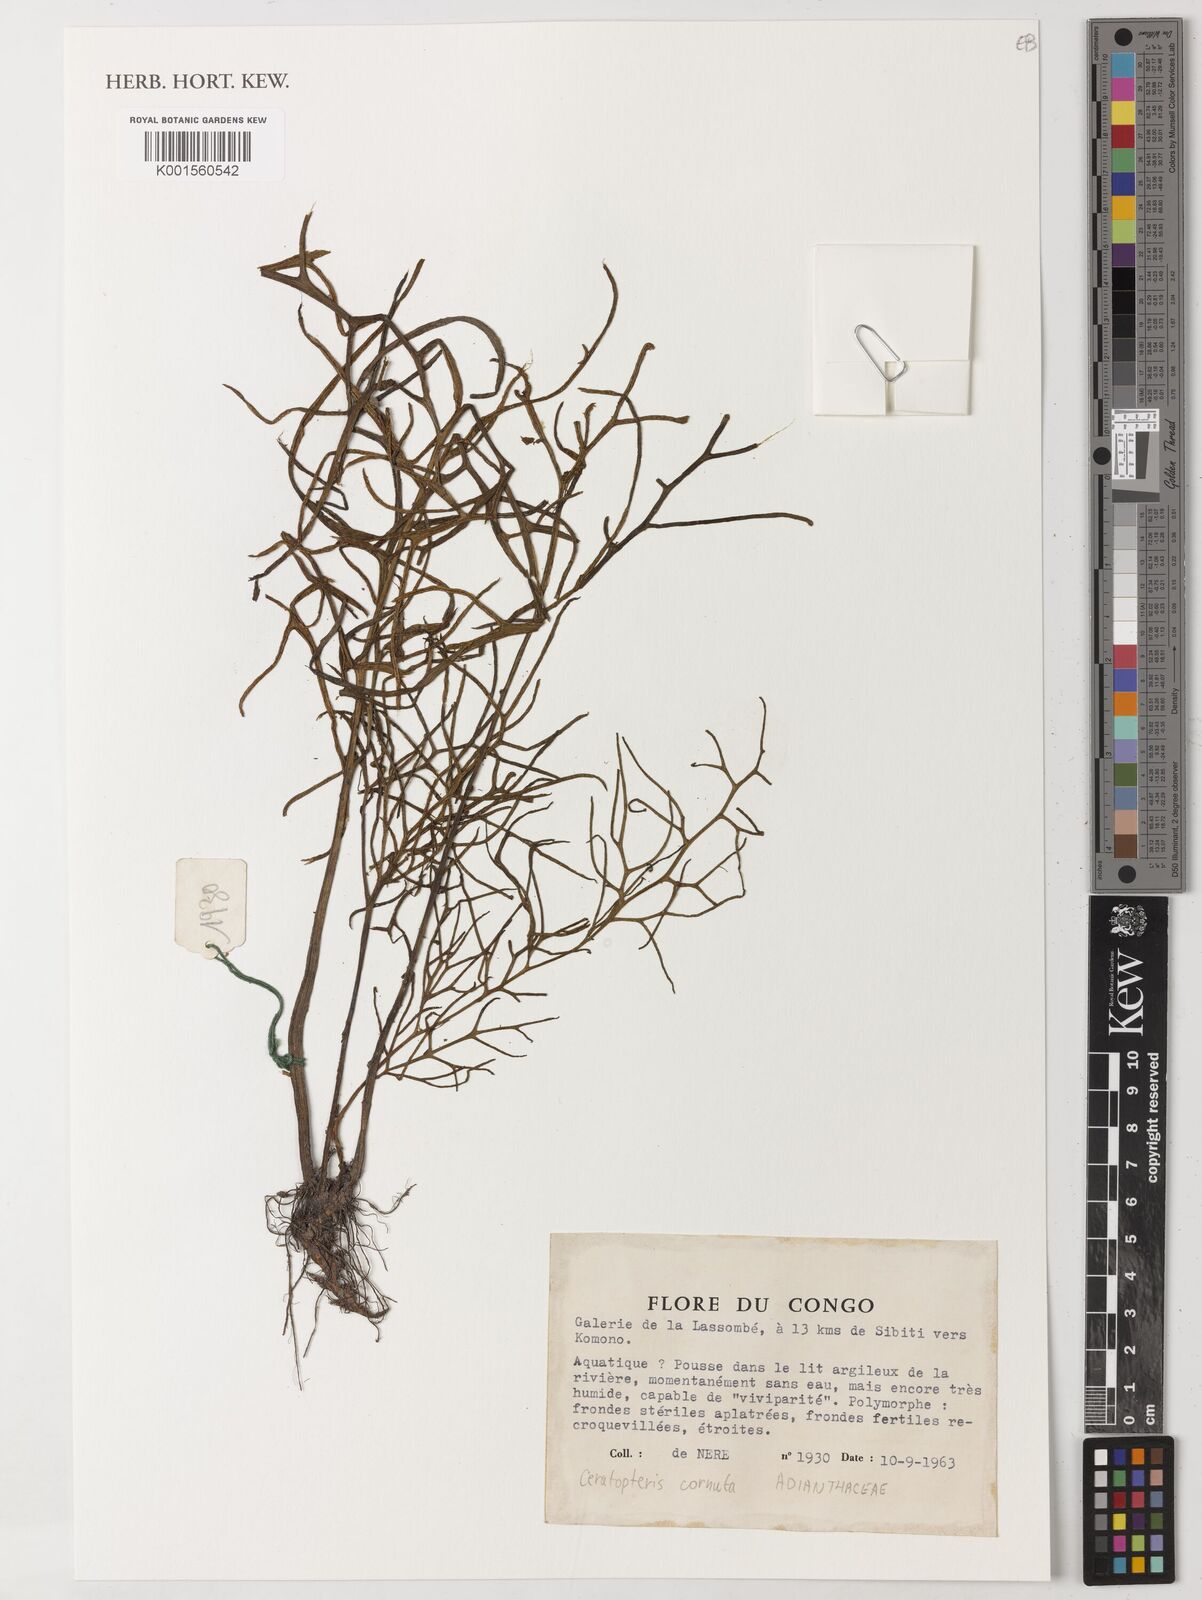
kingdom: Plantae
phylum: Tracheophyta
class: Polypodiopsida
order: Polypodiales
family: Pteridaceae
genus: Ceratopteris
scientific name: Ceratopteris cornuta
